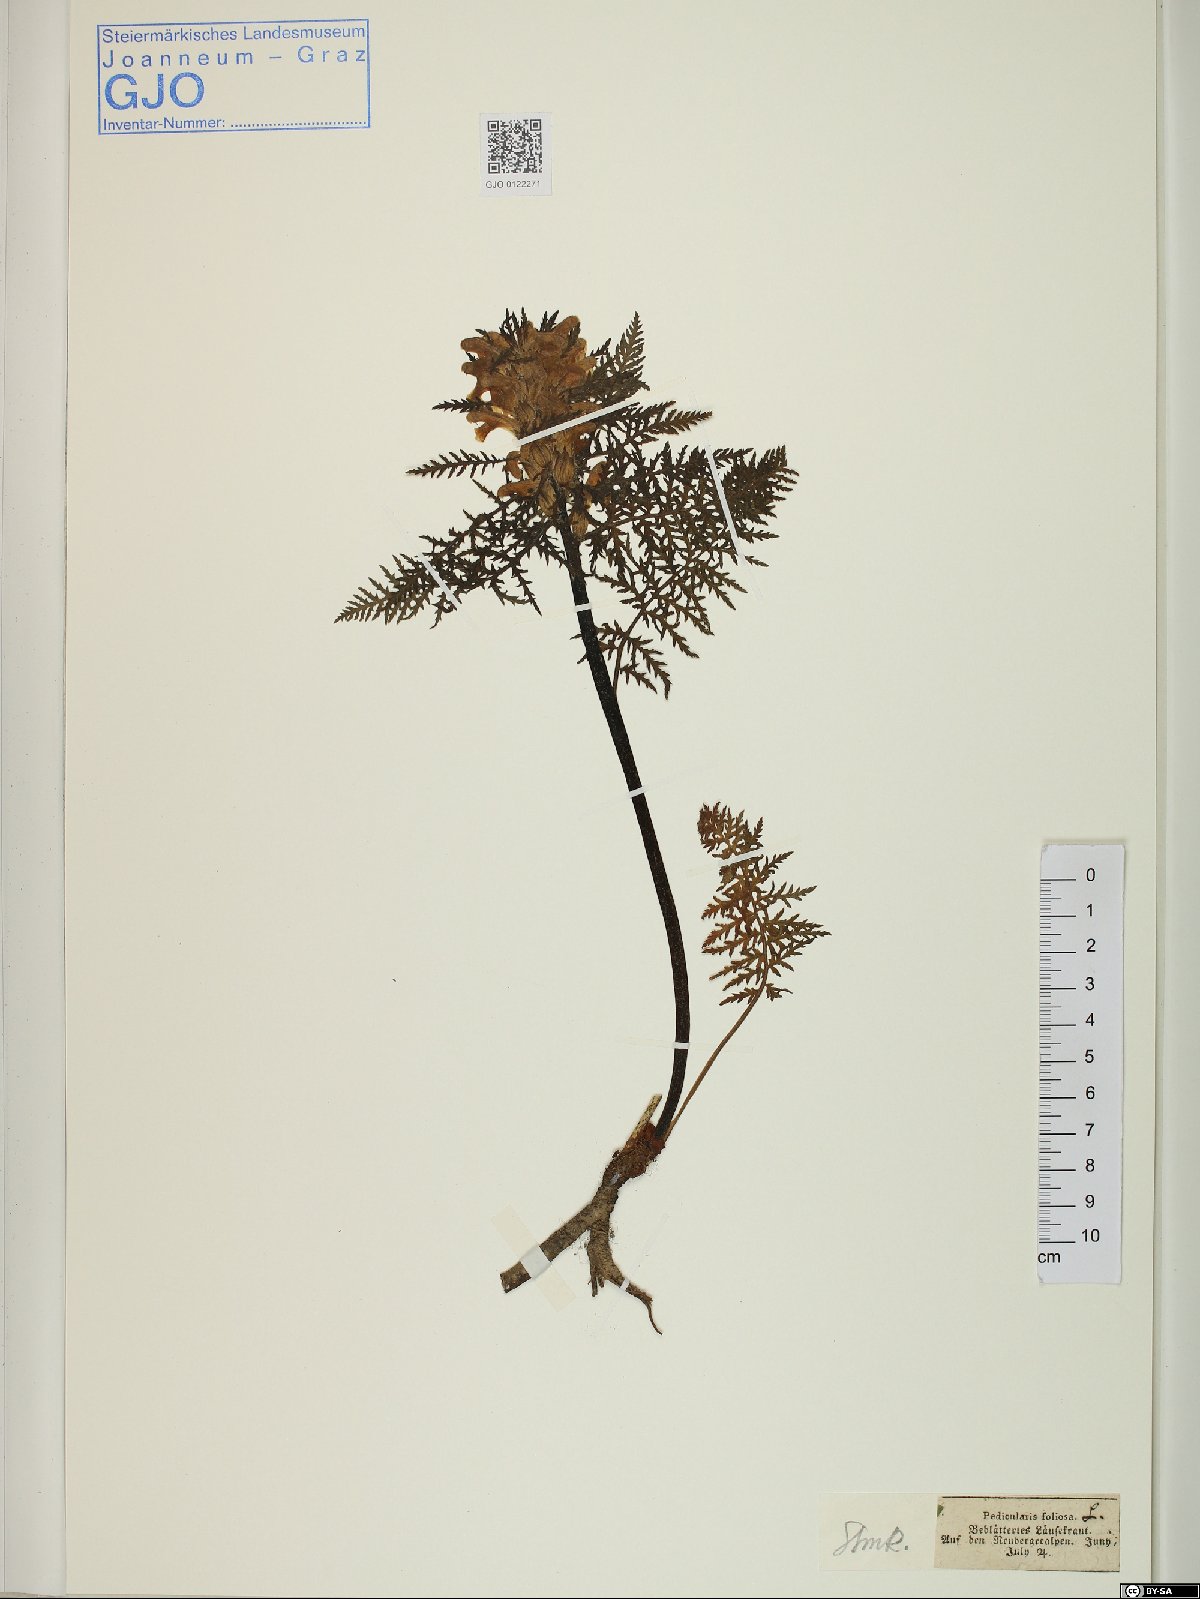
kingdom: Plantae
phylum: Tracheophyta
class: Magnoliopsida
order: Lamiales
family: Orobanchaceae
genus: Pedicularis
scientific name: Pedicularis foliosa
